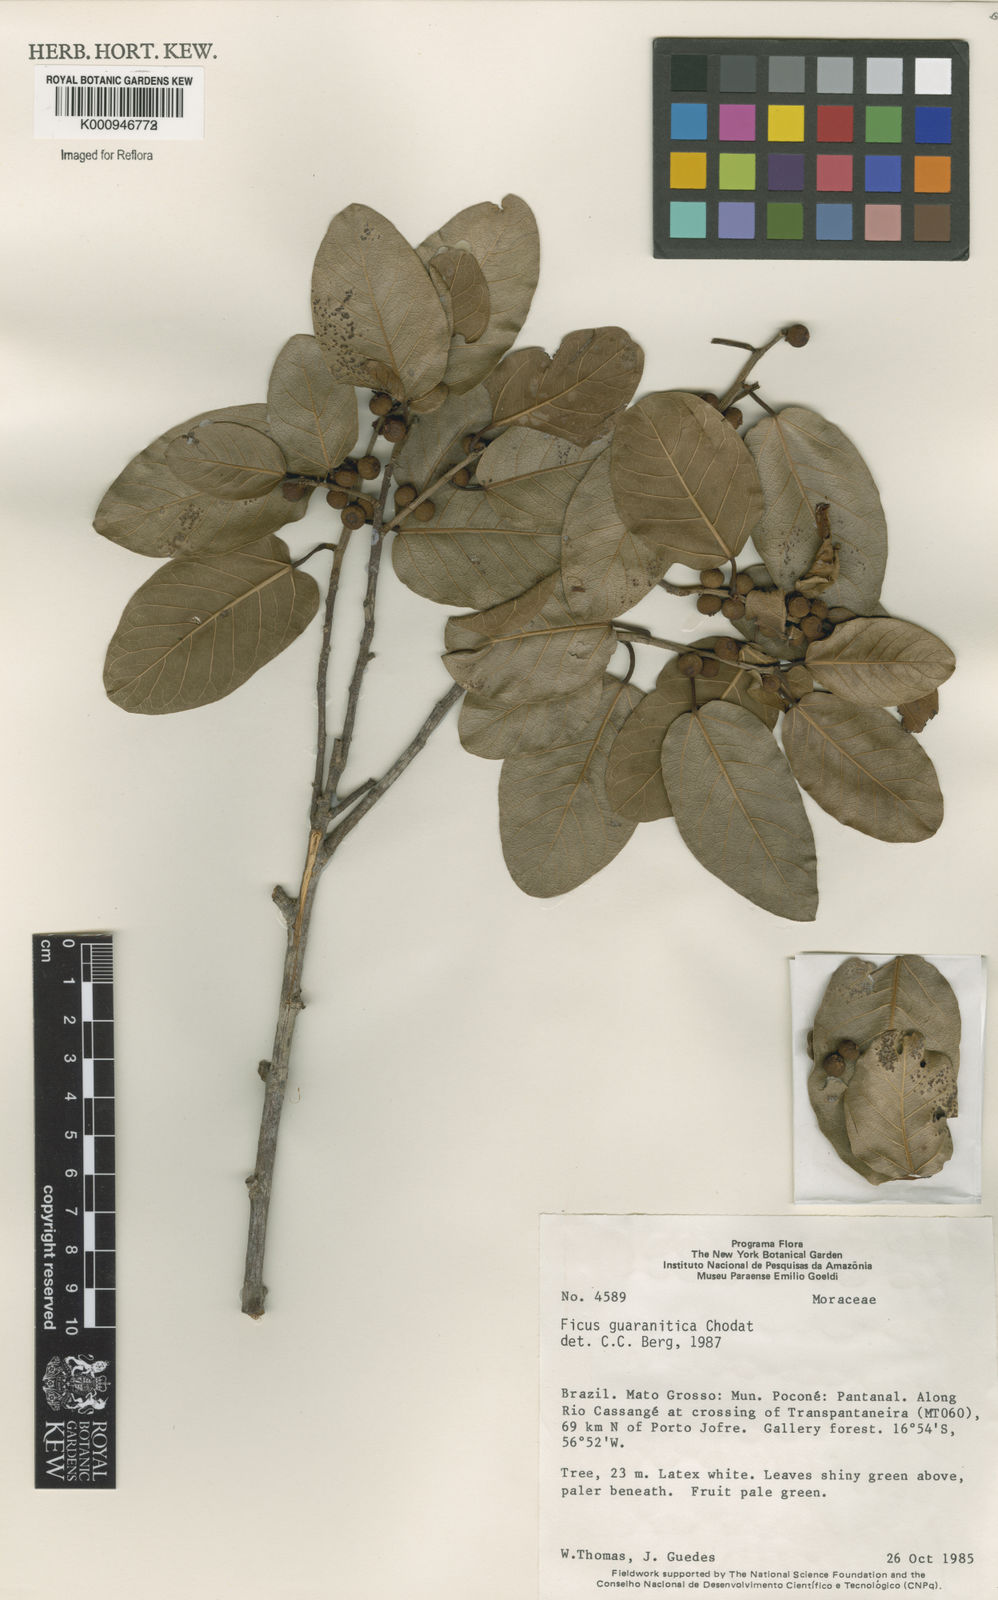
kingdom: Plantae
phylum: Tracheophyta
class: Magnoliopsida
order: Rosales
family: Moraceae
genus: Ficus
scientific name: Ficus guaranitica
